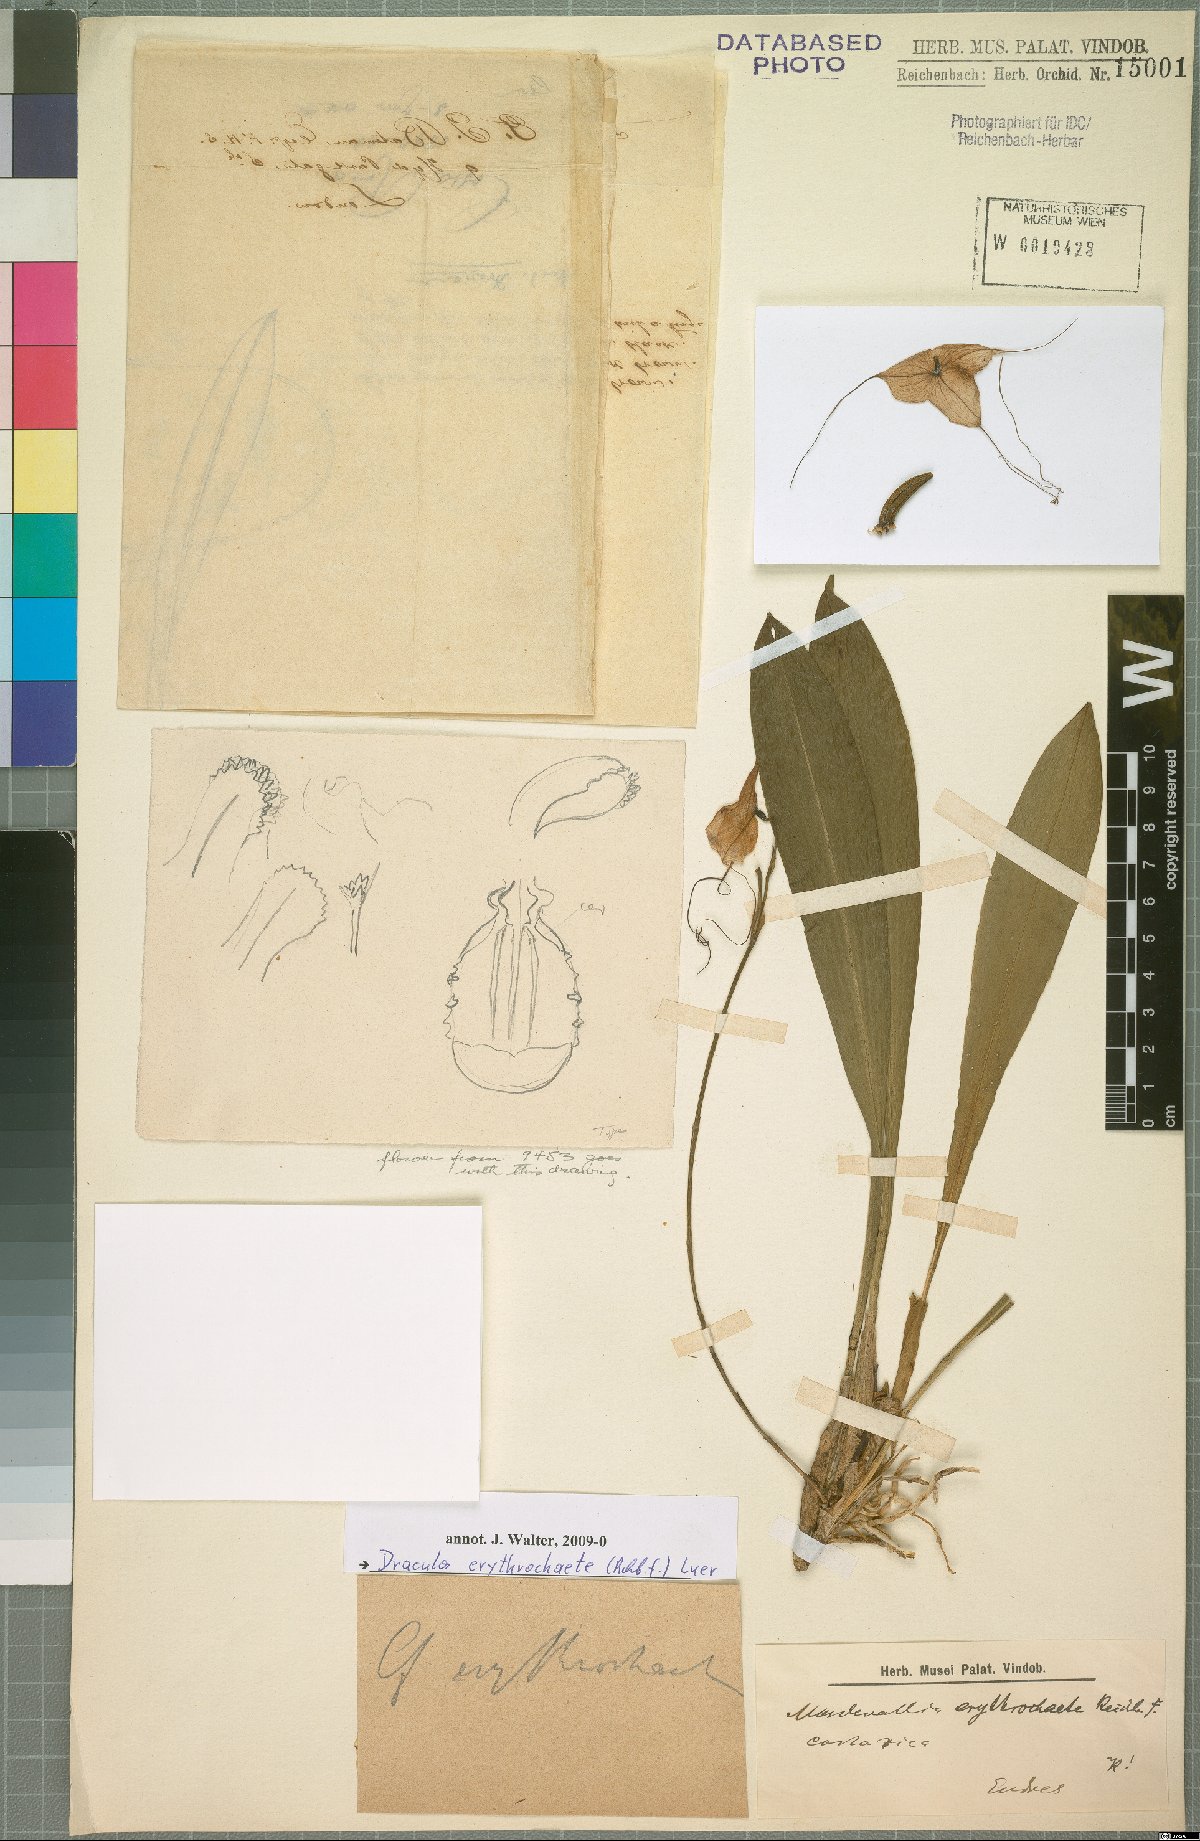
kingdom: Plantae
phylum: Tracheophyta
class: Liliopsida
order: Asparagales
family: Orchidaceae
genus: Dracula
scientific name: Dracula erythrochaete
